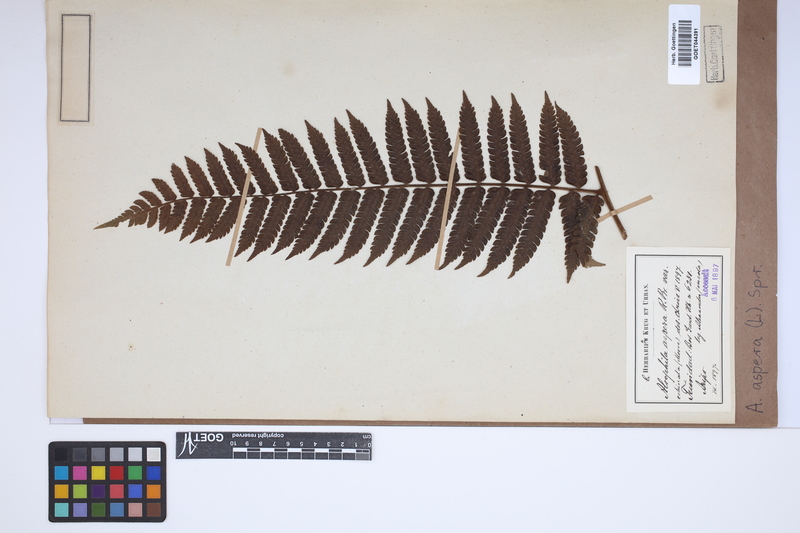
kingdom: Plantae
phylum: Tracheophyta
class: Polypodiopsida
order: Cyatheales
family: Cyatheaceae
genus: Cyathea
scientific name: Cyathea aspera
